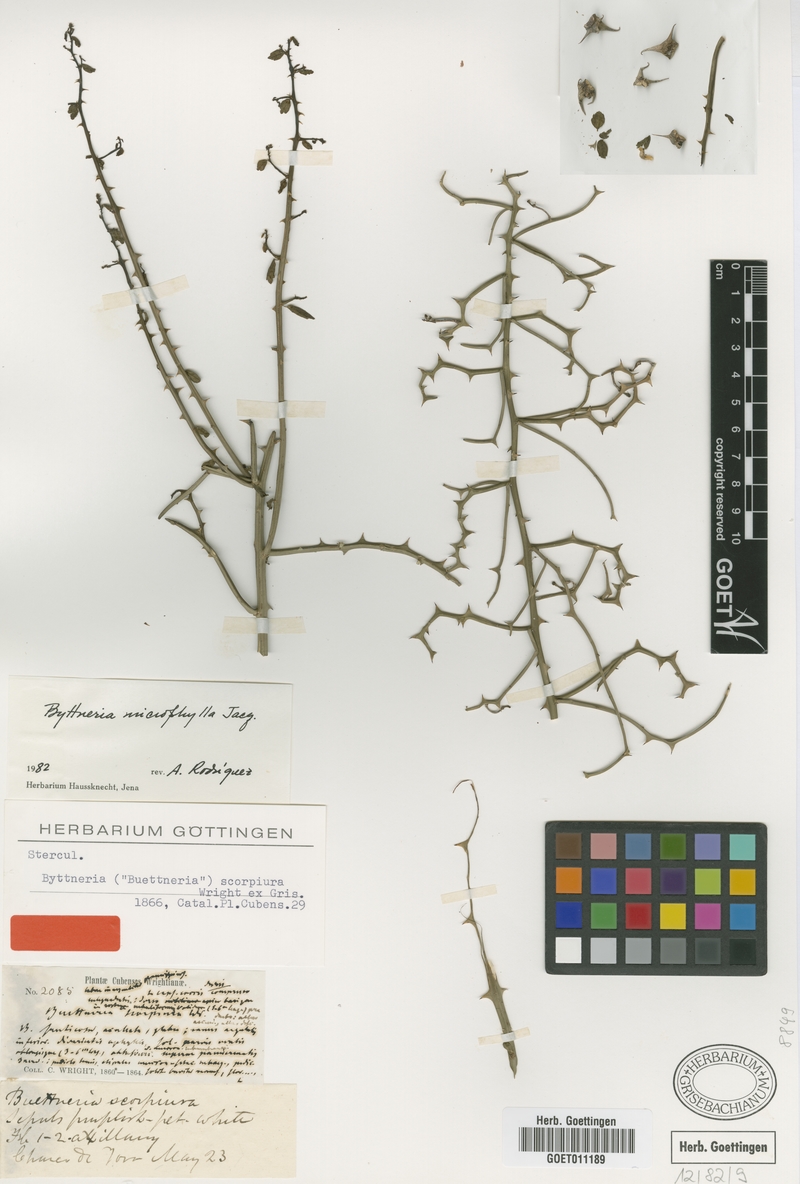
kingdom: Plantae
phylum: Tracheophyta
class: Magnoliopsida
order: Malvales
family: Malvaceae
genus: Byttneria
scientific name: Byttneria microphylla
